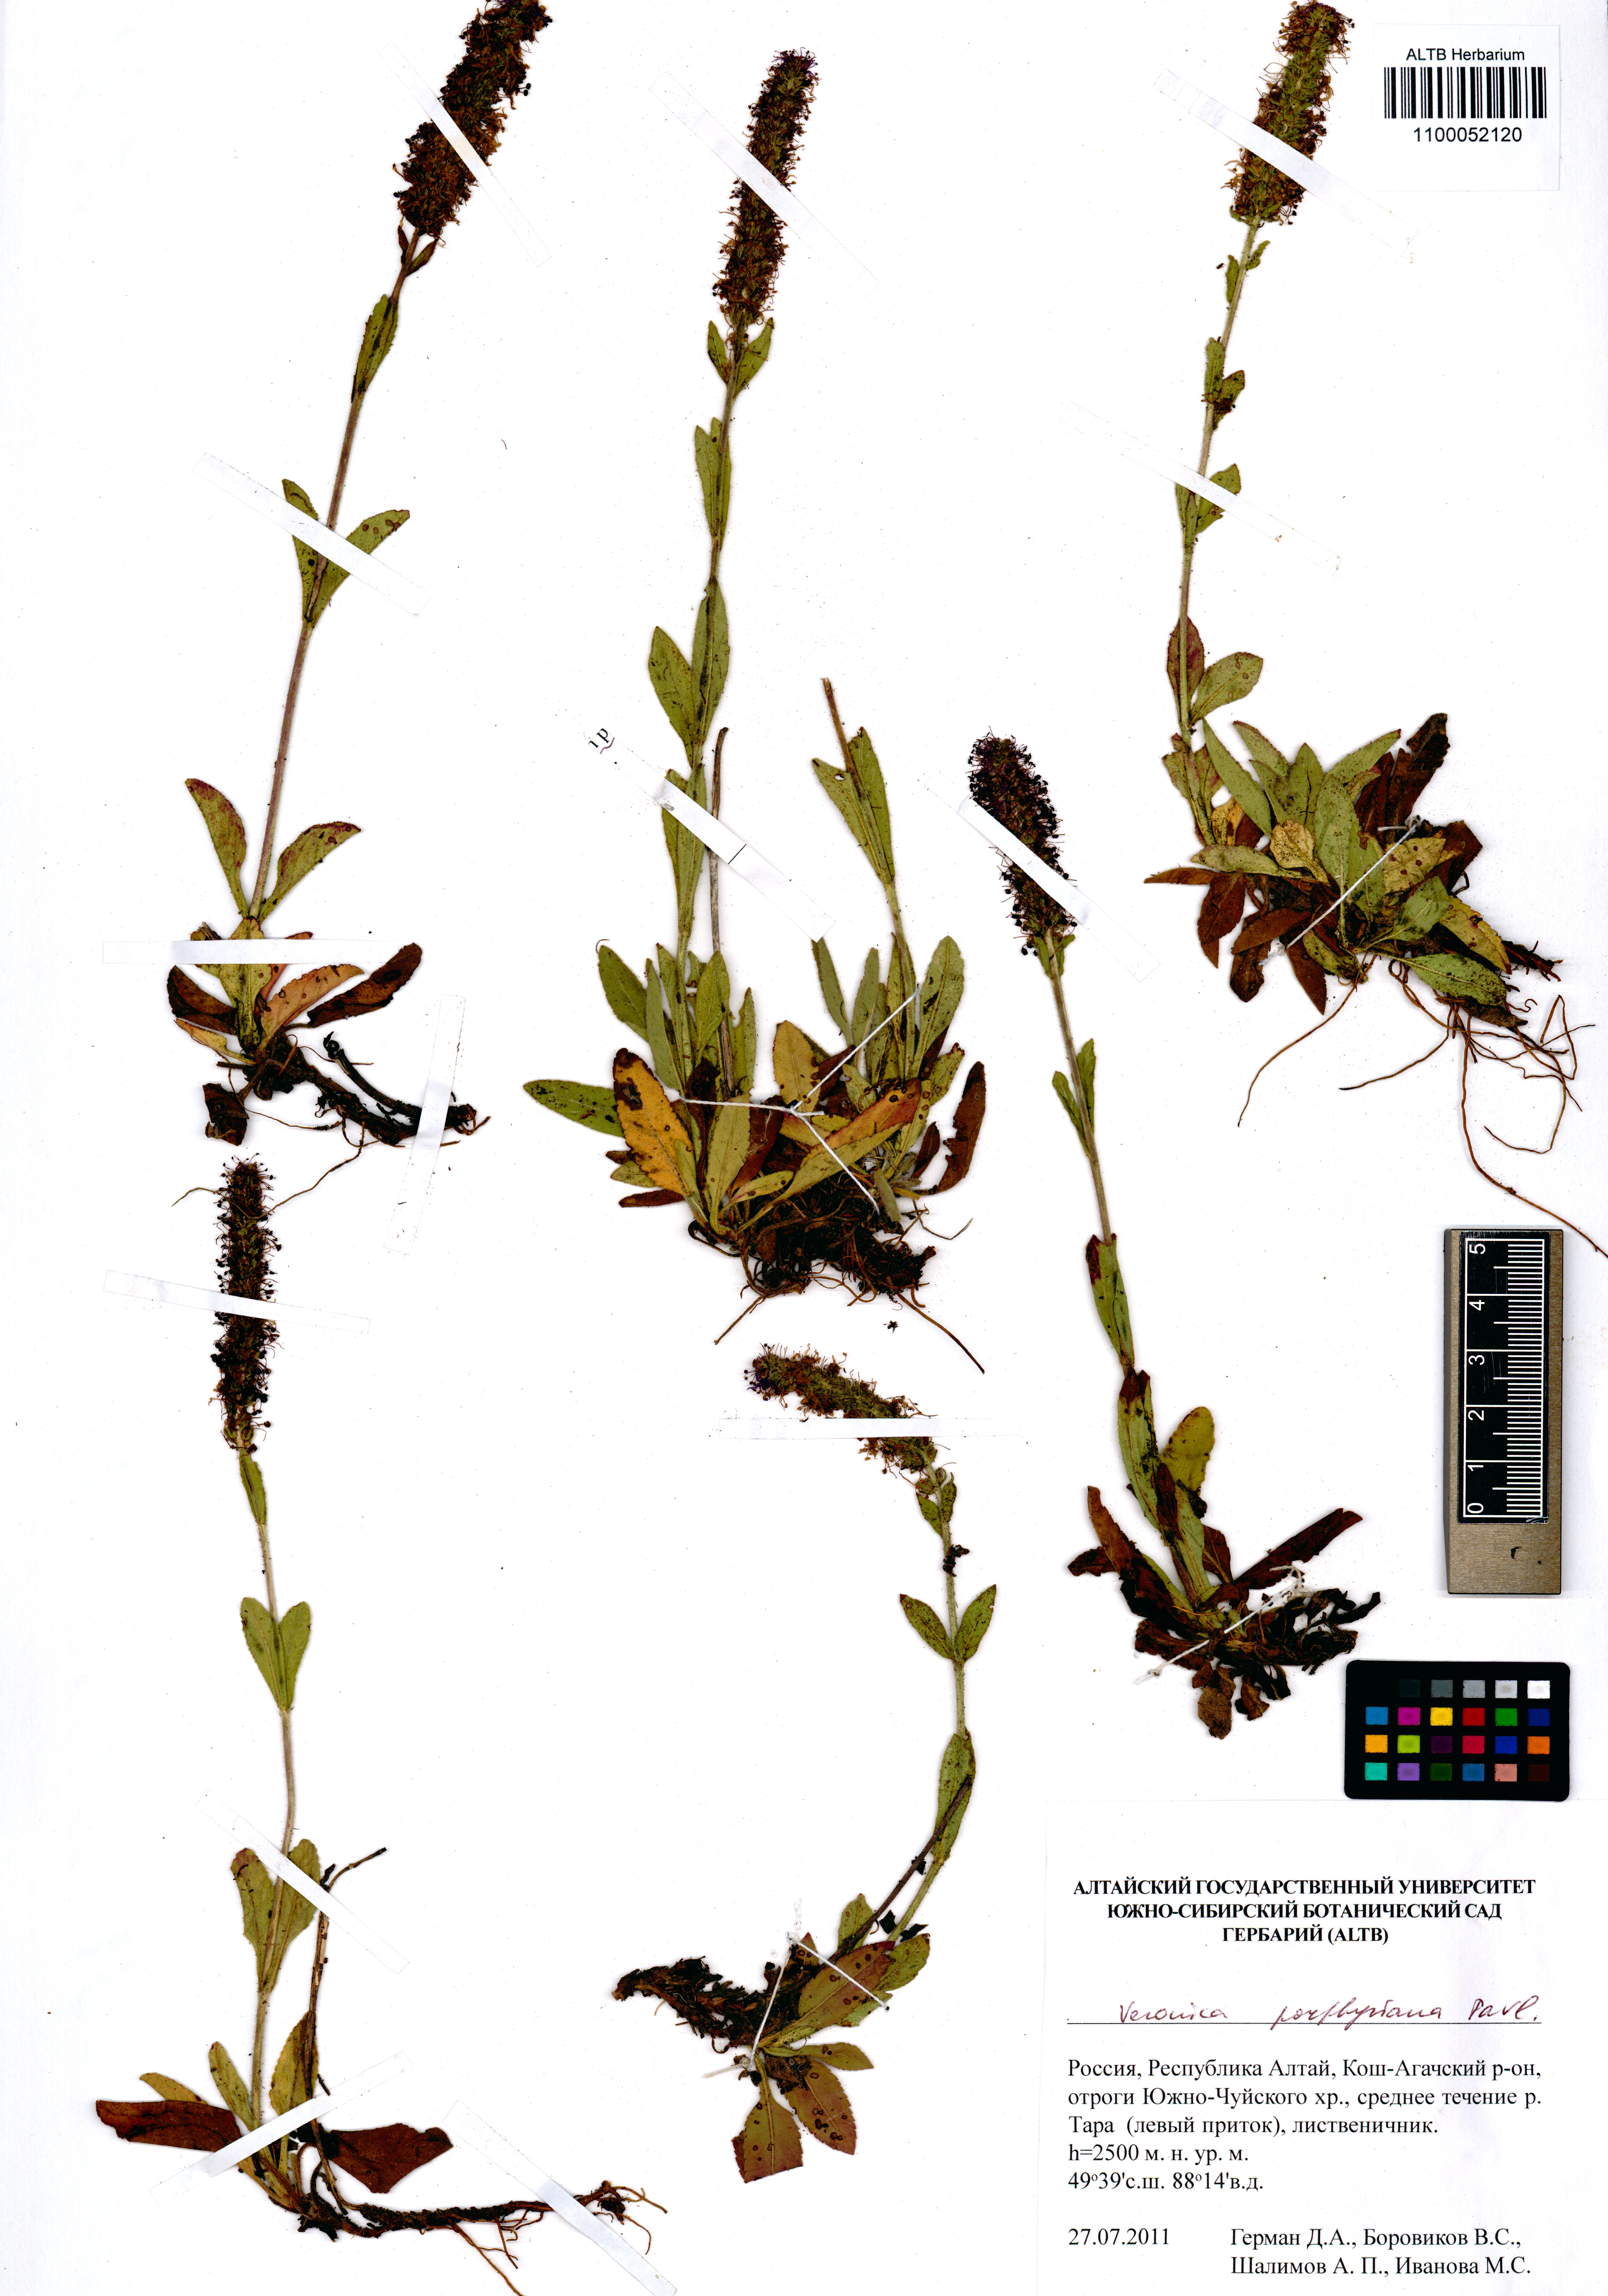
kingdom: Plantae
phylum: Tracheophyta
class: Magnoliopsida
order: Lamiales
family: Plantaginaceae
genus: Veronica
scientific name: Veronica porphyriana
